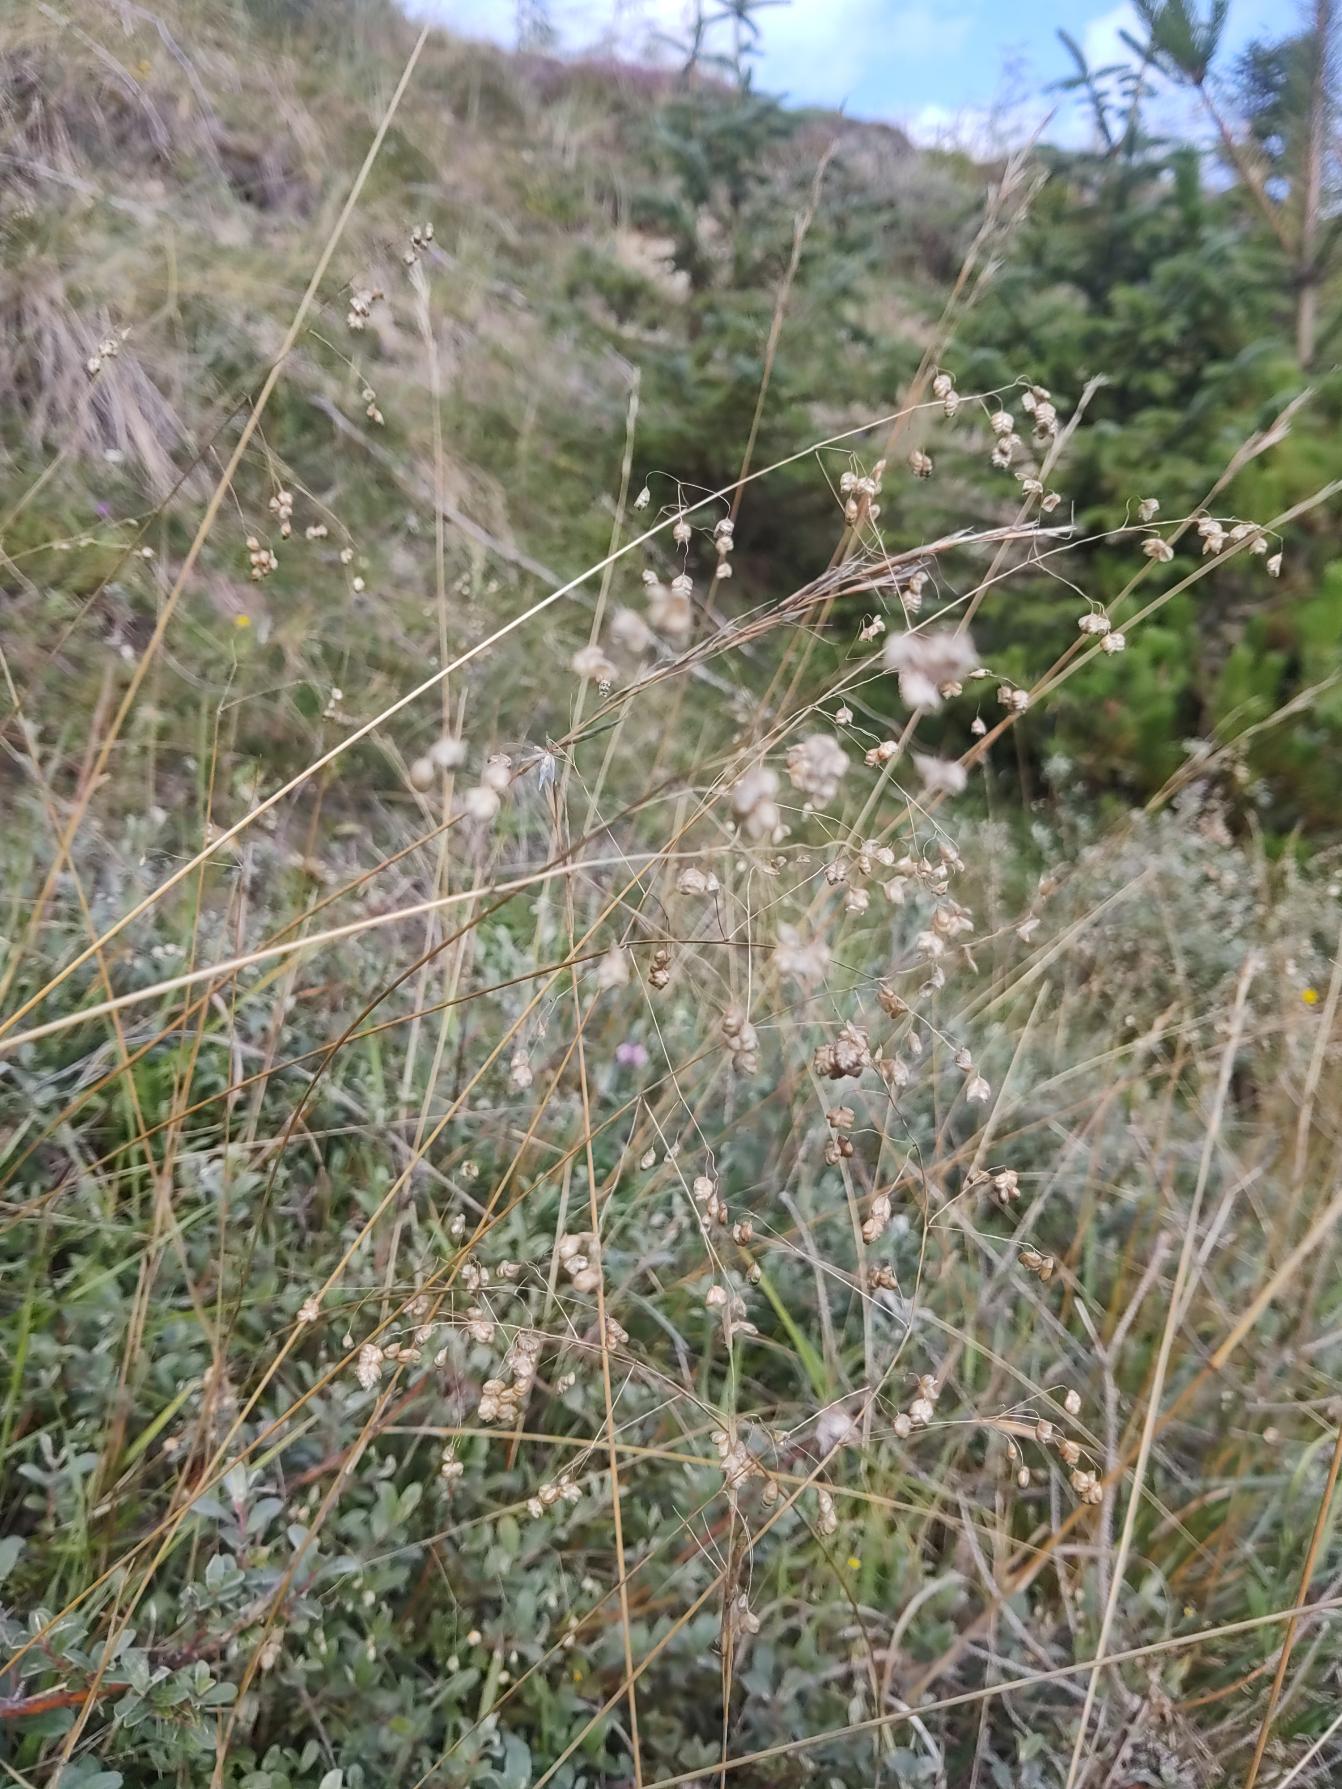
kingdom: Plantae
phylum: Tracheophyta
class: Liliopsida
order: Poales
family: Poaceae
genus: Briza
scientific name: Briza media
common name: Hjertegræs
